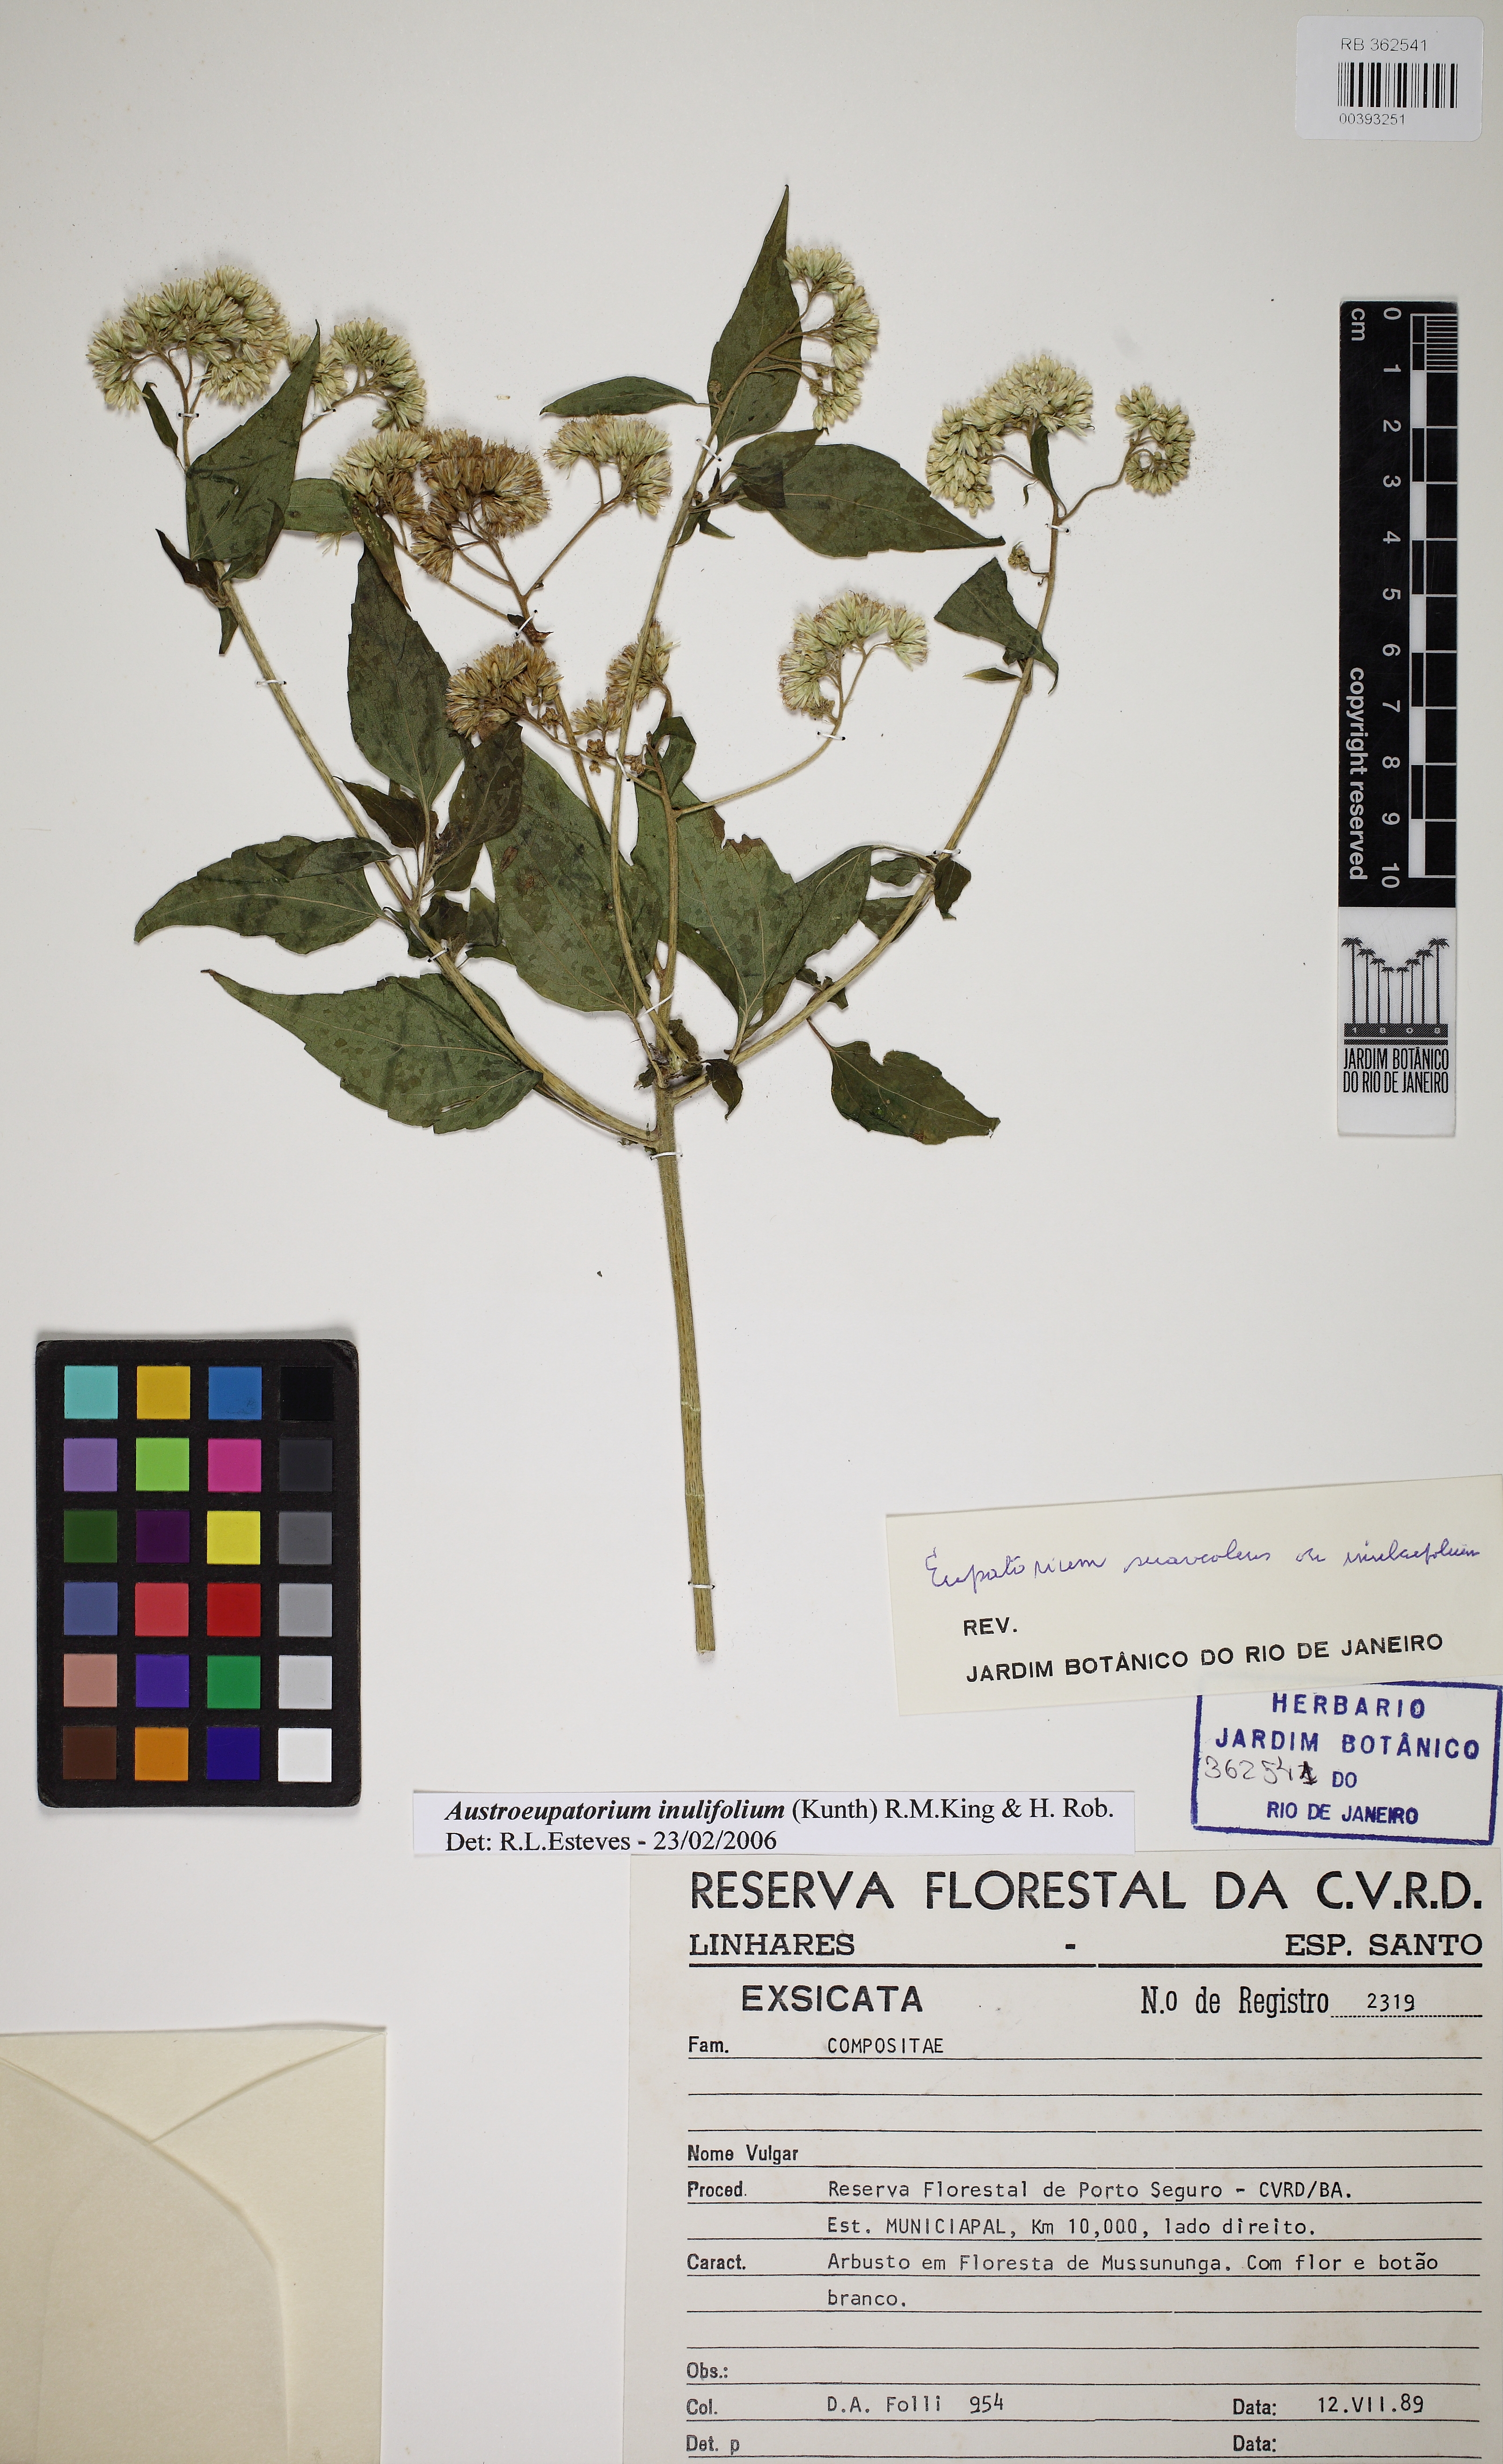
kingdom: Plantae
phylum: Tracheophyta
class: Magnoliopsida
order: Asterales
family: Asteraceae
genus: Austroeupatorium
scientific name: Austroeupatorium inulaefolium
